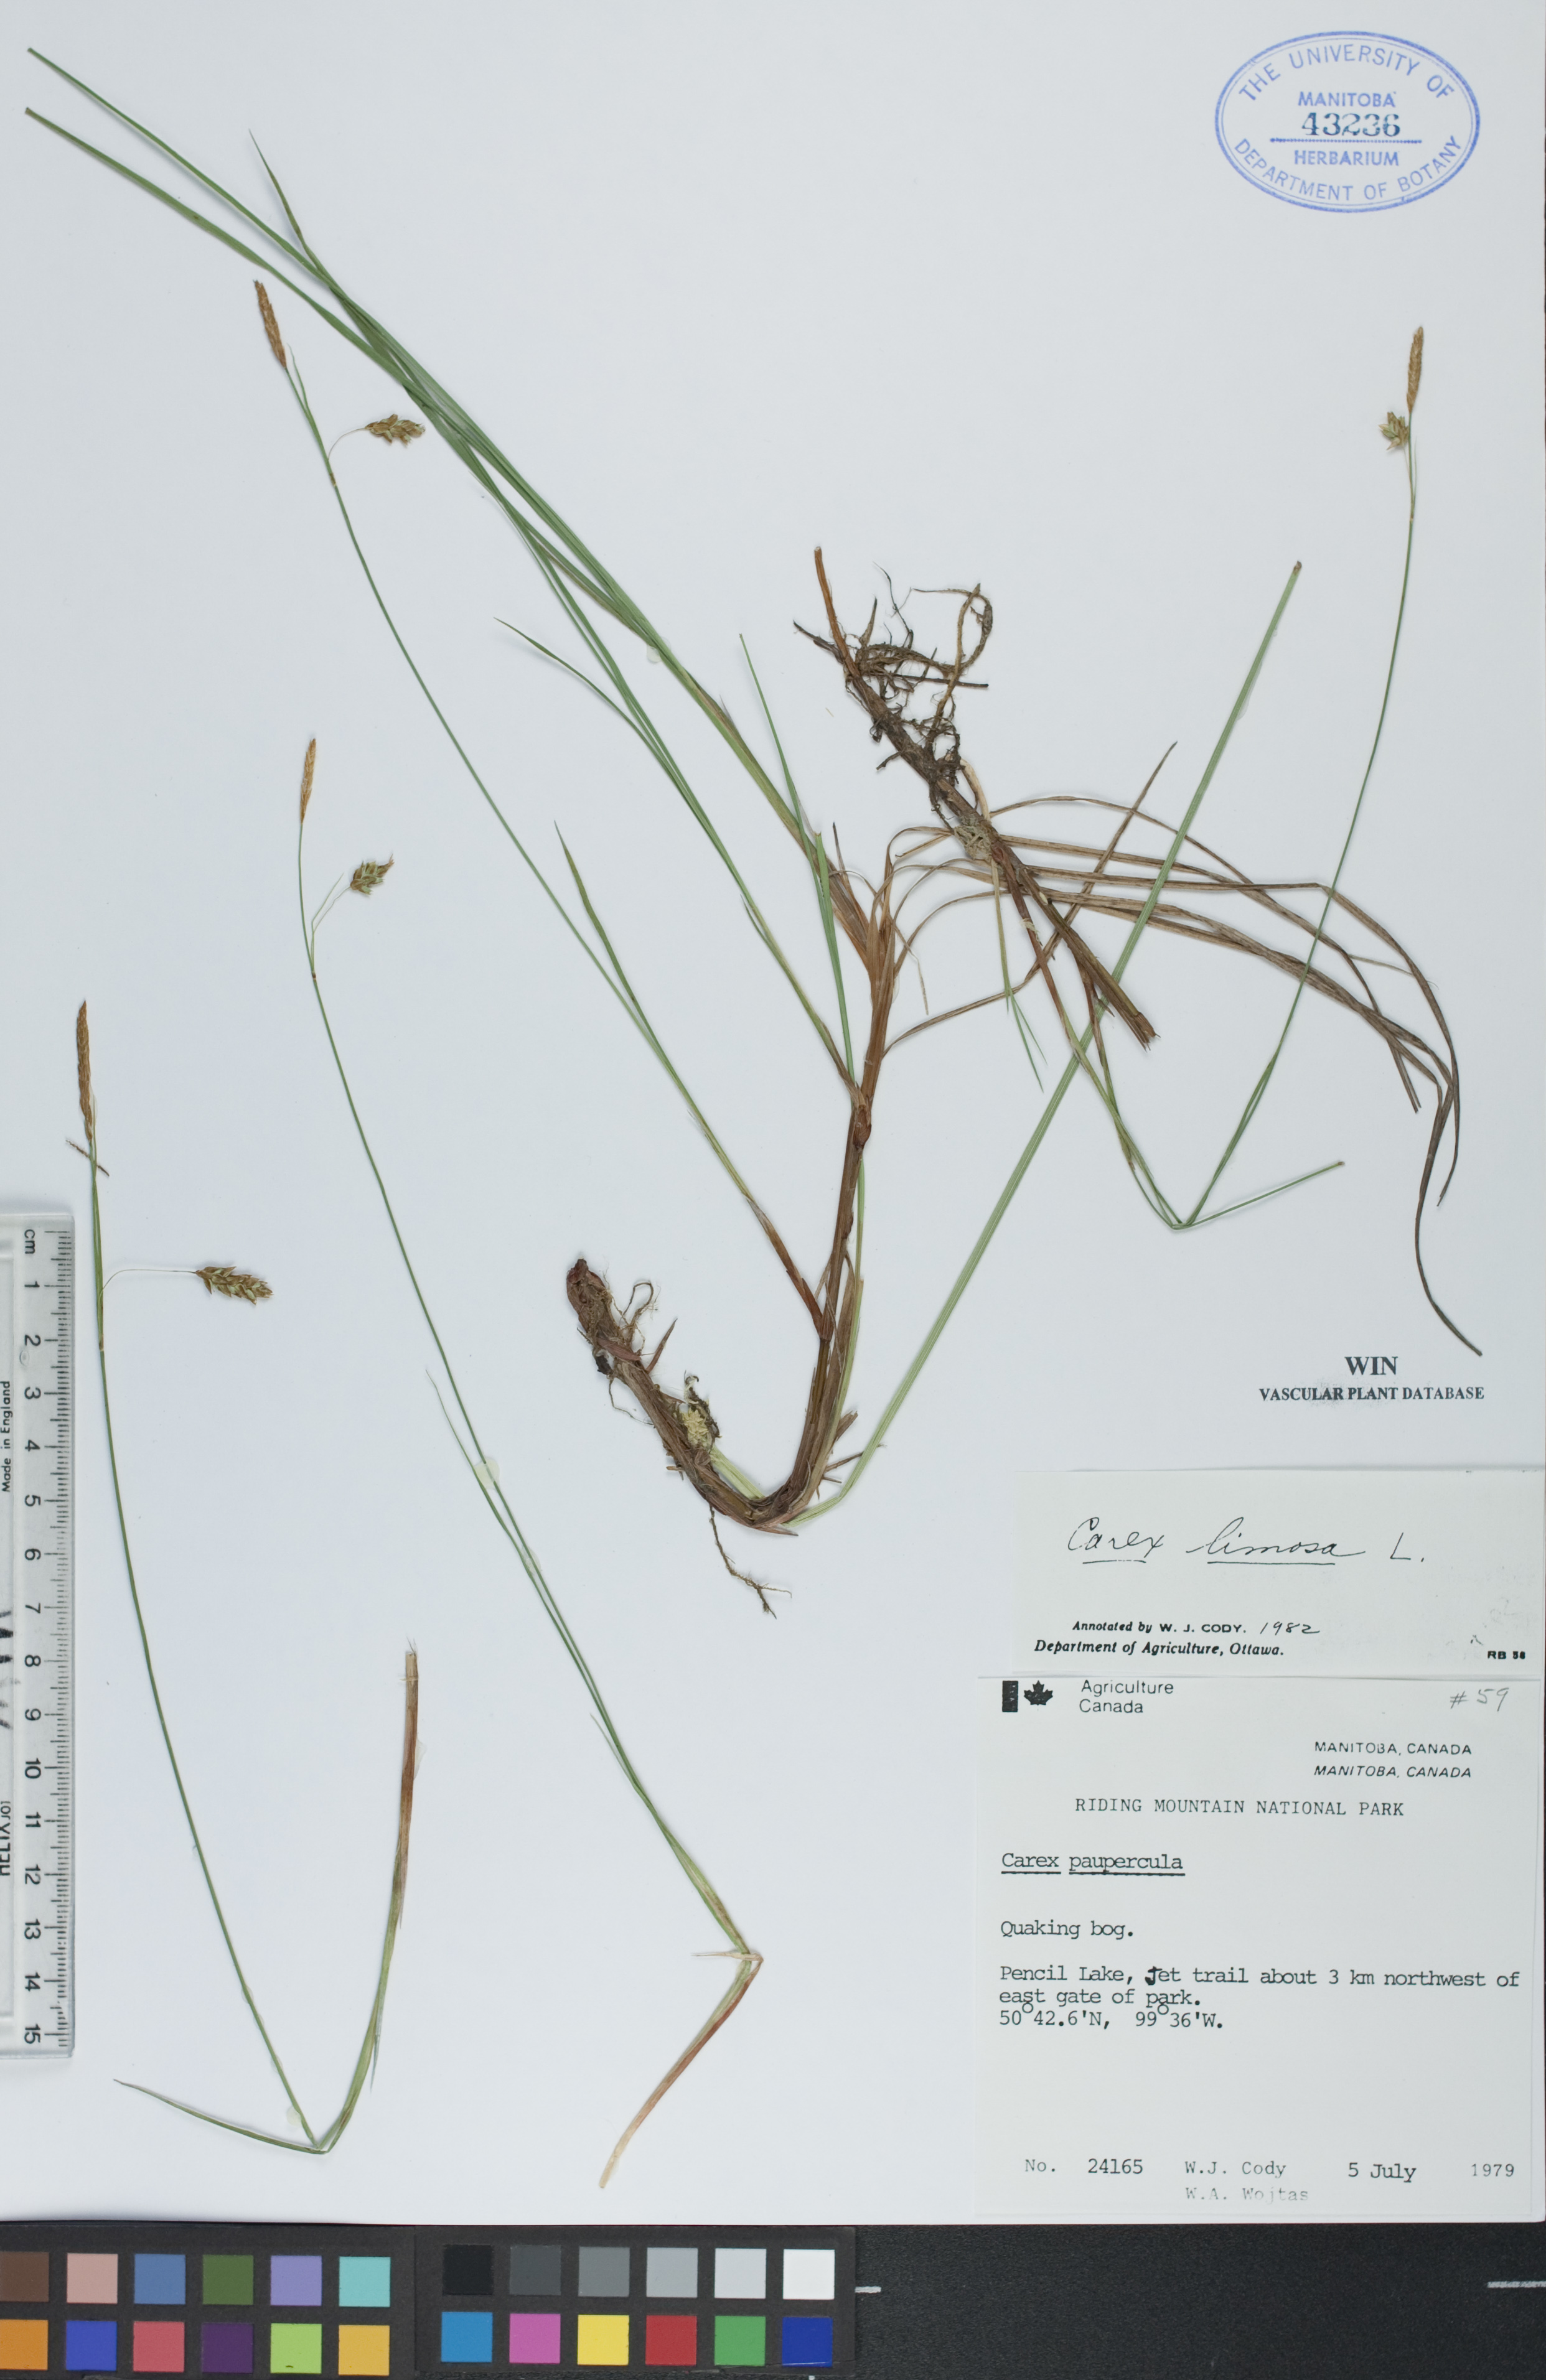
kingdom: Plantae
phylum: Tracheophyta
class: Liliopsida
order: Poales
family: Cyperaceae
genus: Carex
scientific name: Carex limosa
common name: Bog sedge
